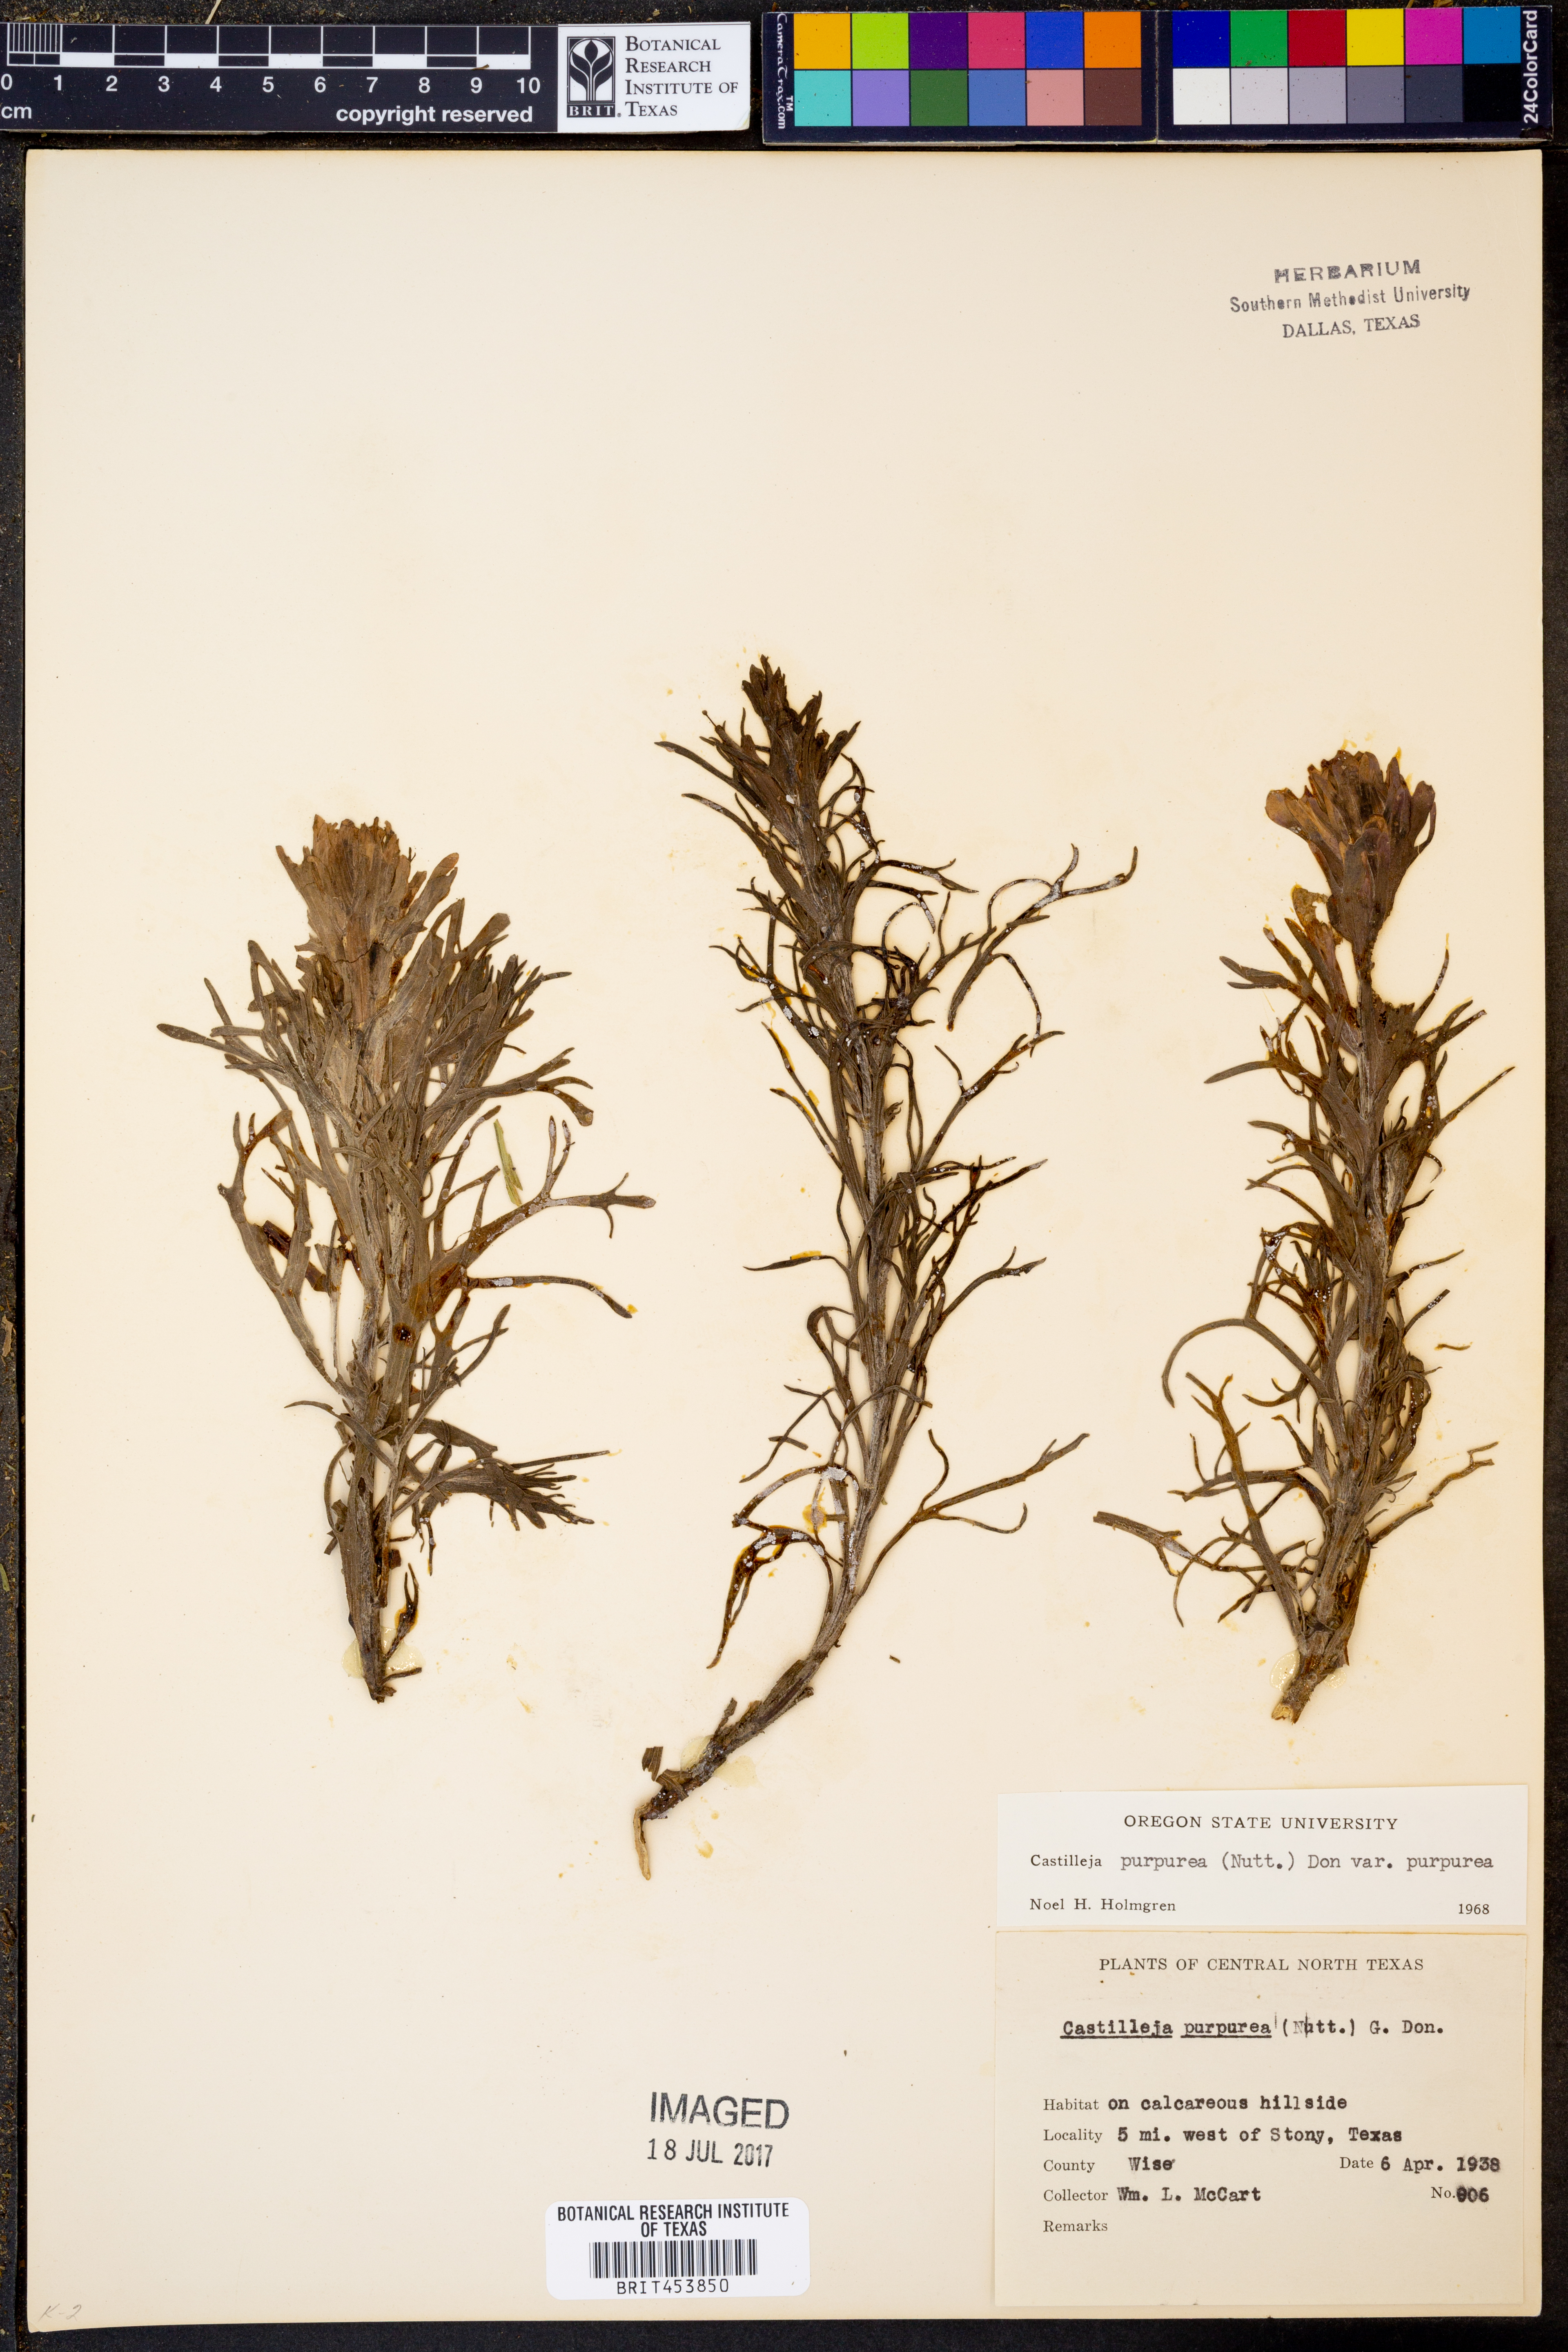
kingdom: Plantae
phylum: Tracheophyta
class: Magnoliopsida
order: Lamiales
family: Orobanchaceae
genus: Castilleja
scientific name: Castilleja purpurea
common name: Plains paintbrush
